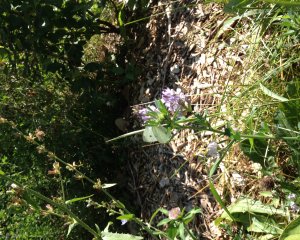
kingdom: Animalia
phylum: Arthropoda
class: Insecta
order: Lepidoptera
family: Pieridae
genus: Pieris
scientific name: Pieris rapae
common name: Cabbage White
